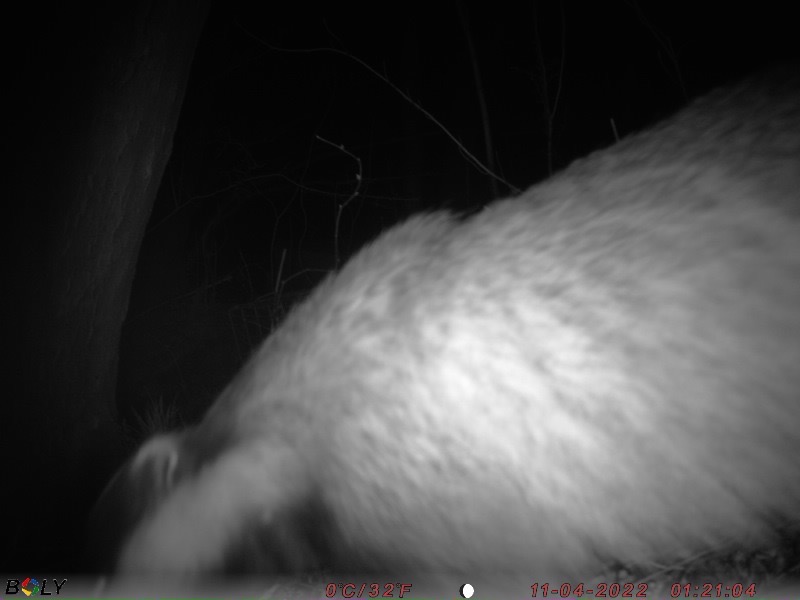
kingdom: Animalia
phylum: Chordata
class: Mammalia
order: Carnivora
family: Mustelidae
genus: Meles
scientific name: Meles meles
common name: Grævling
